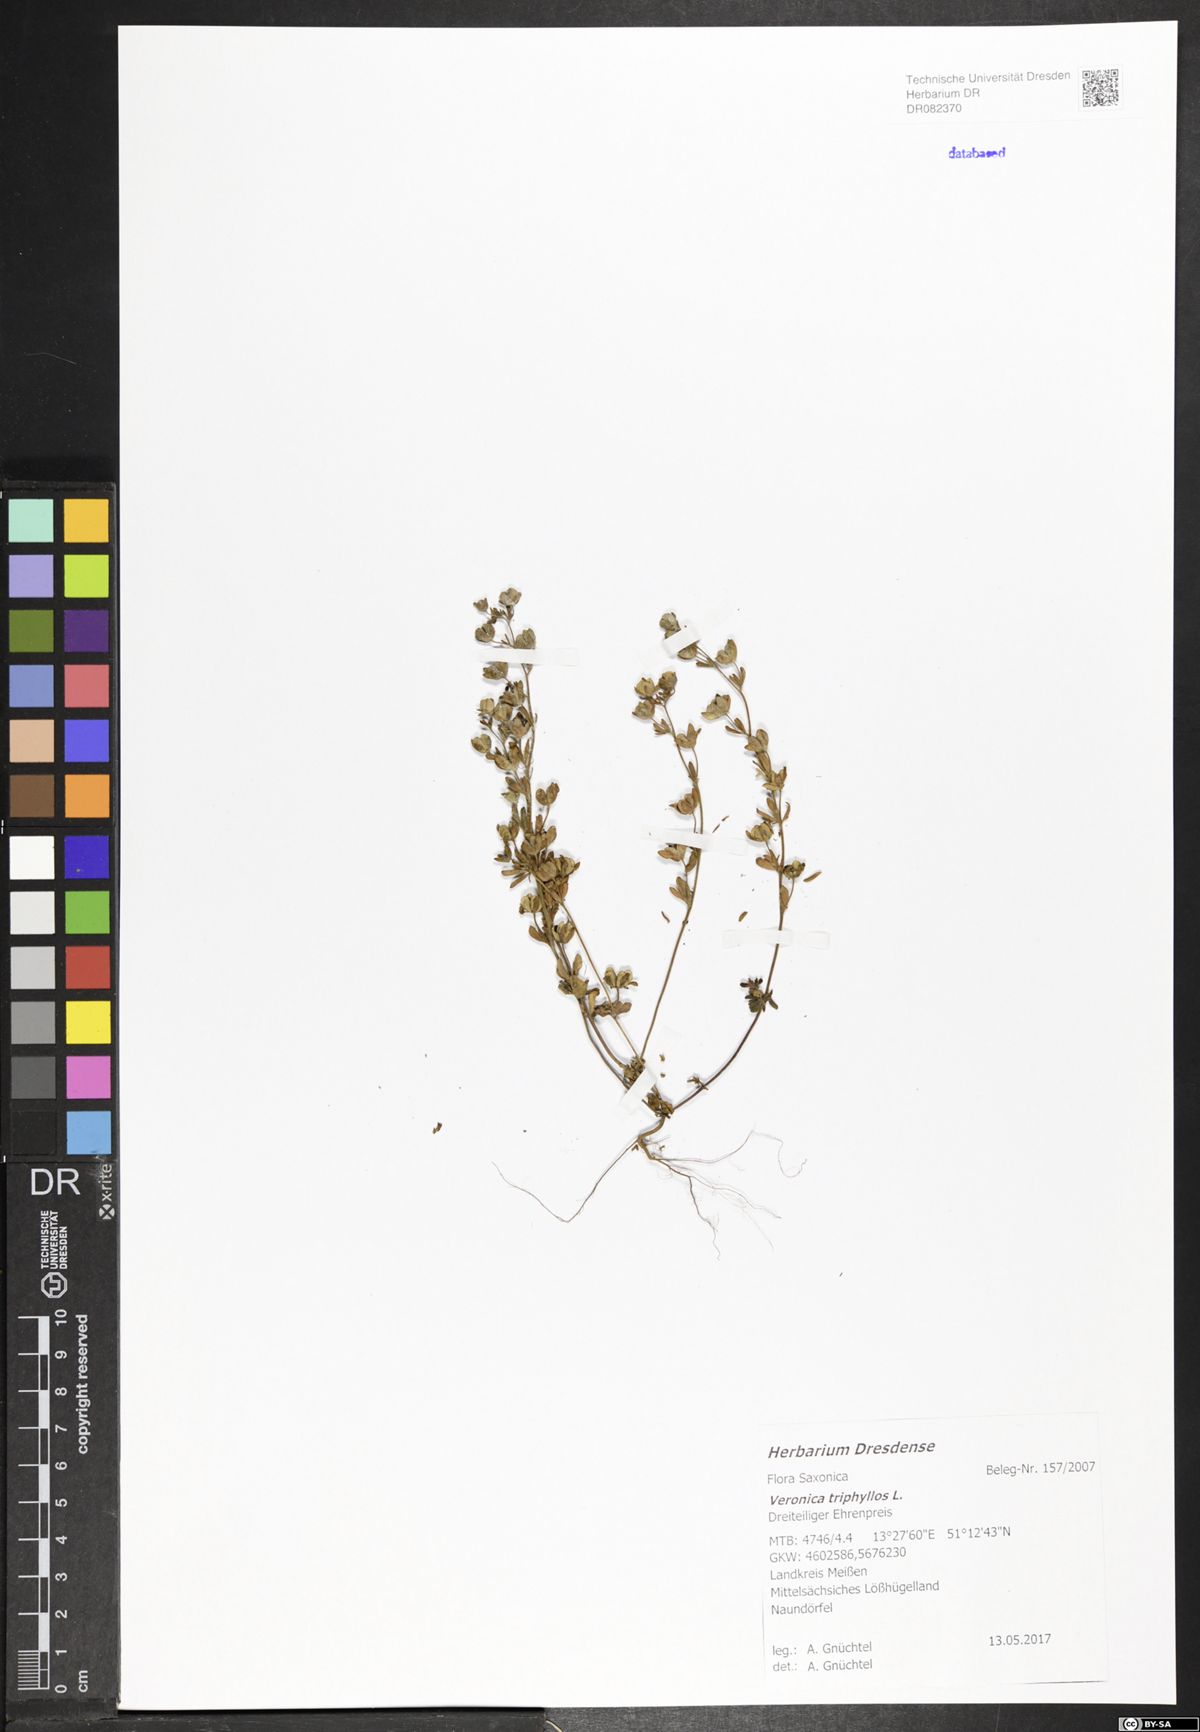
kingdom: Plantae
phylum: Tracheophyta
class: Magnoliopsida
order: Lamiales
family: Plantaginaceae
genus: Veronica
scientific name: Veronica triphyllos
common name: Fingered speedwell
